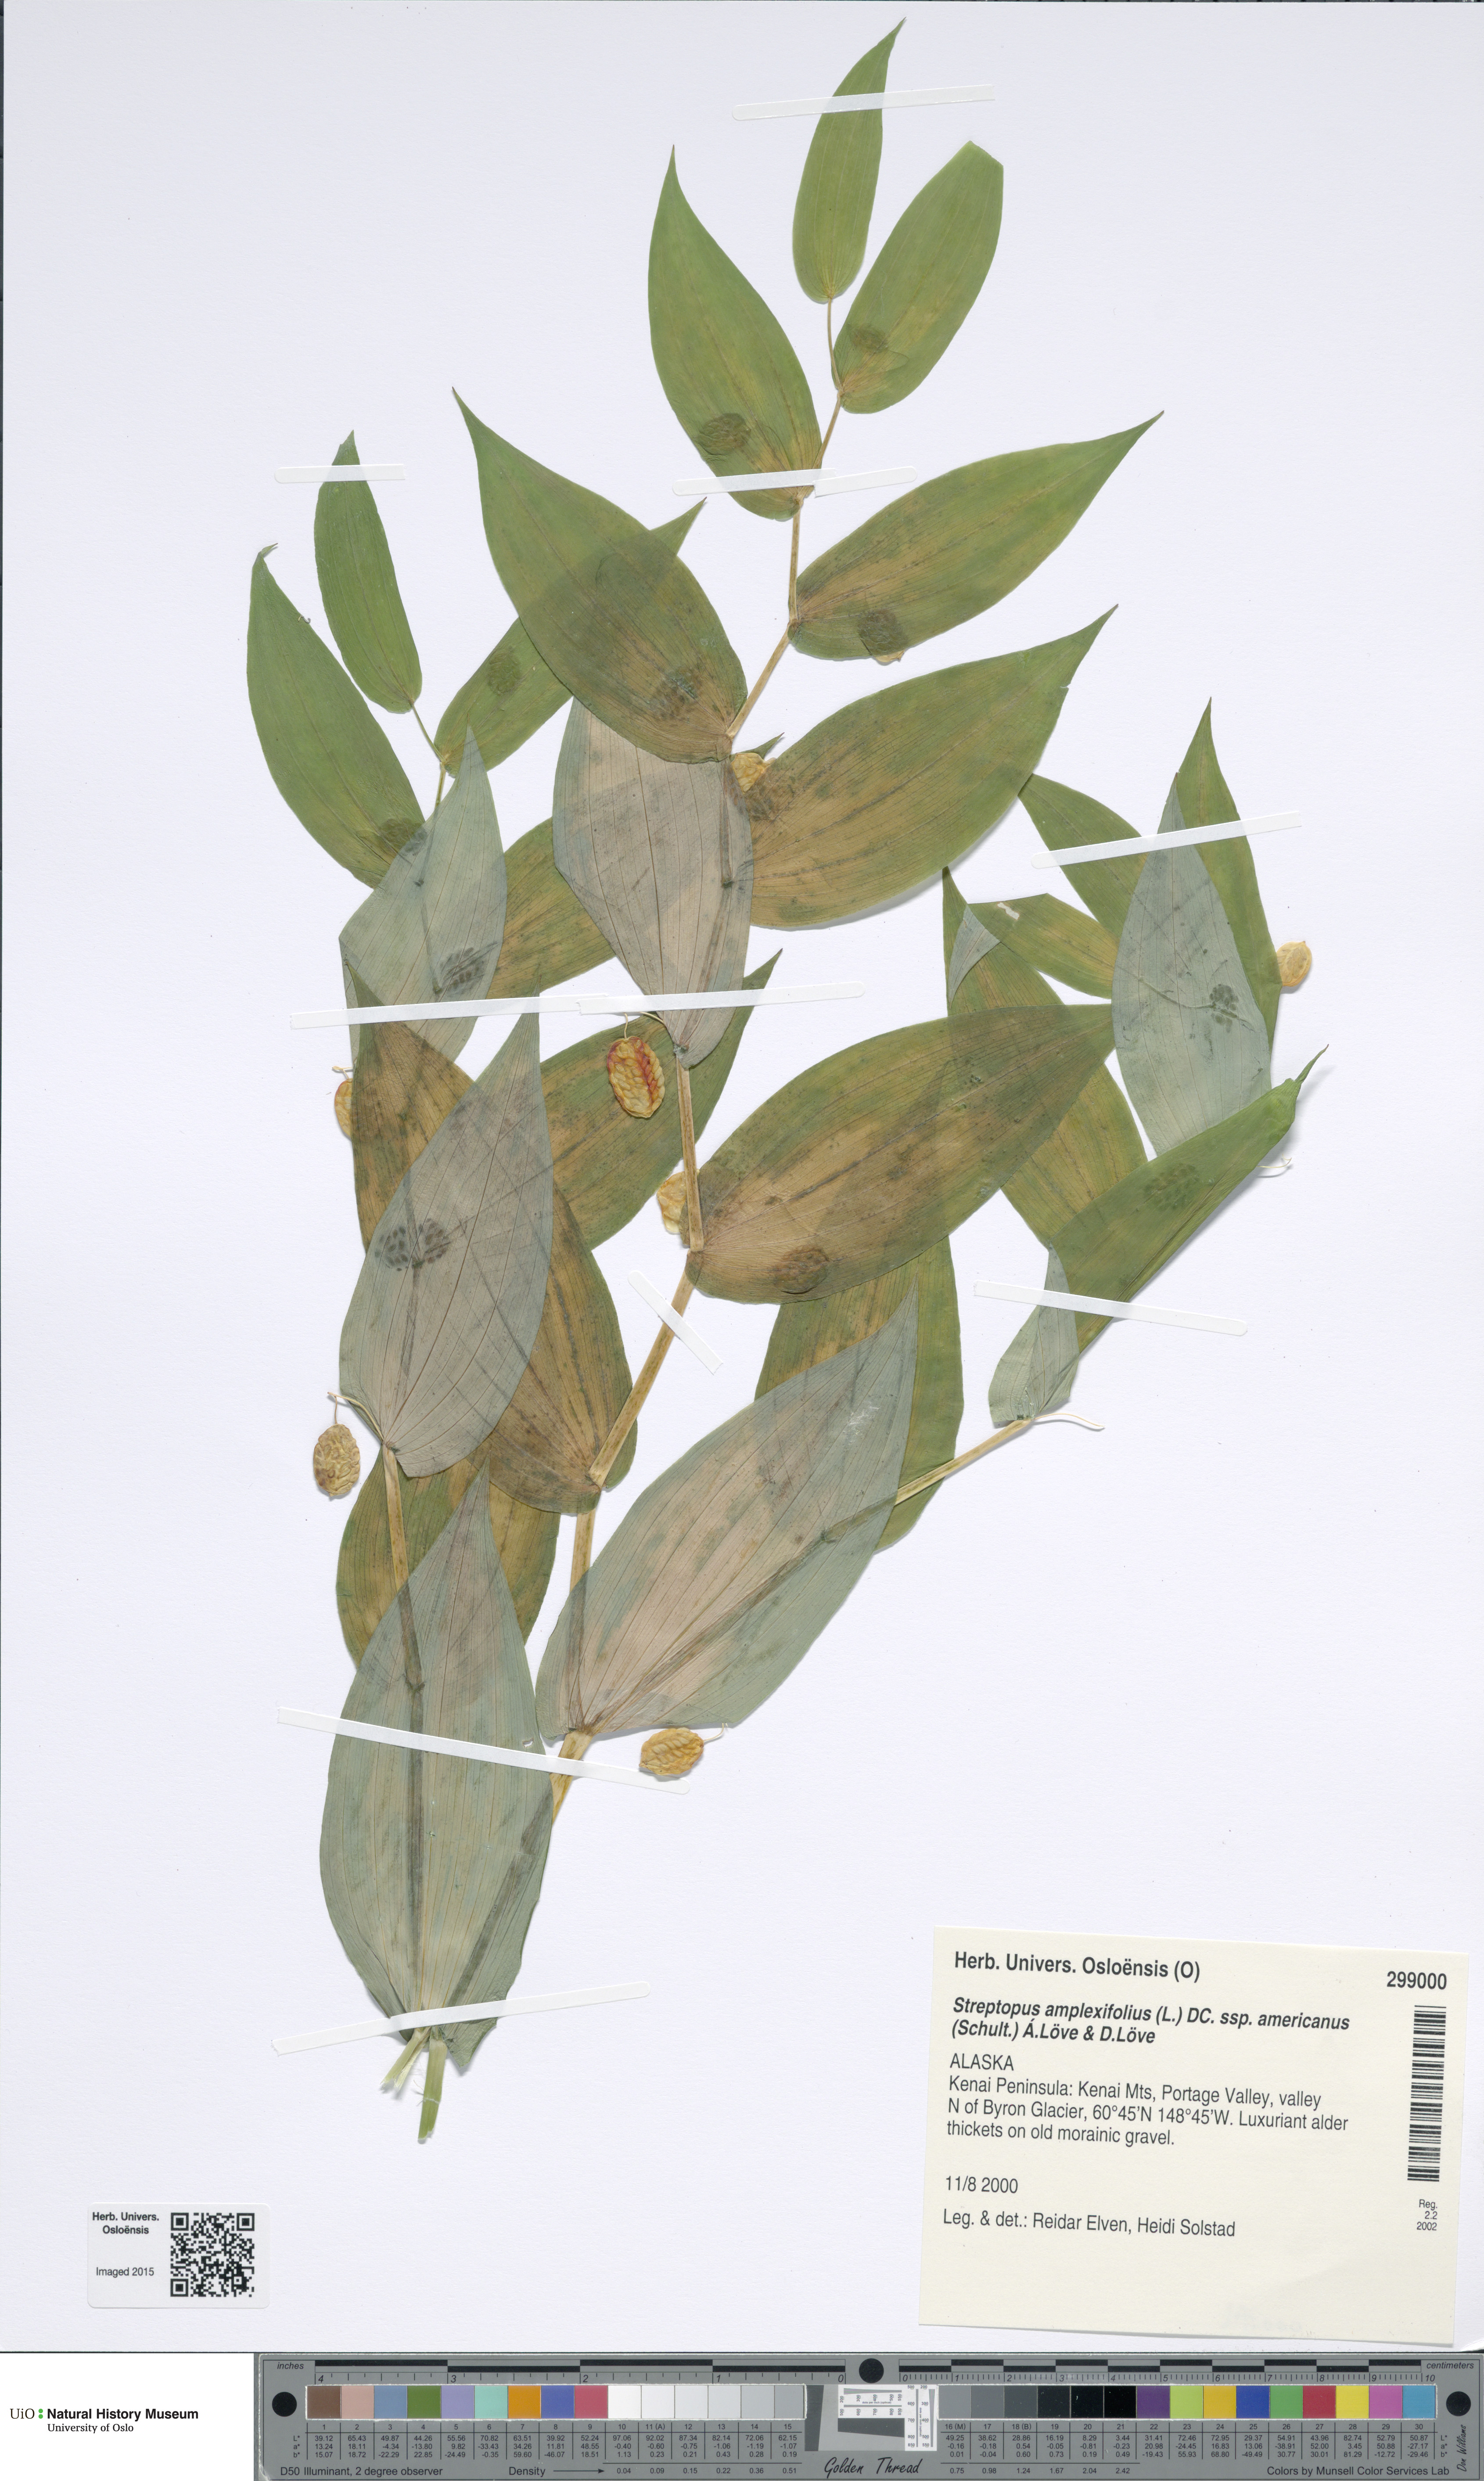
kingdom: Plantae
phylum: Tracheophyta
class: Liliopsida
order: Liliales
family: Liliaceae
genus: Streptopus
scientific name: Streptopus amplexifolius
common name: Clasp twisted stalk
